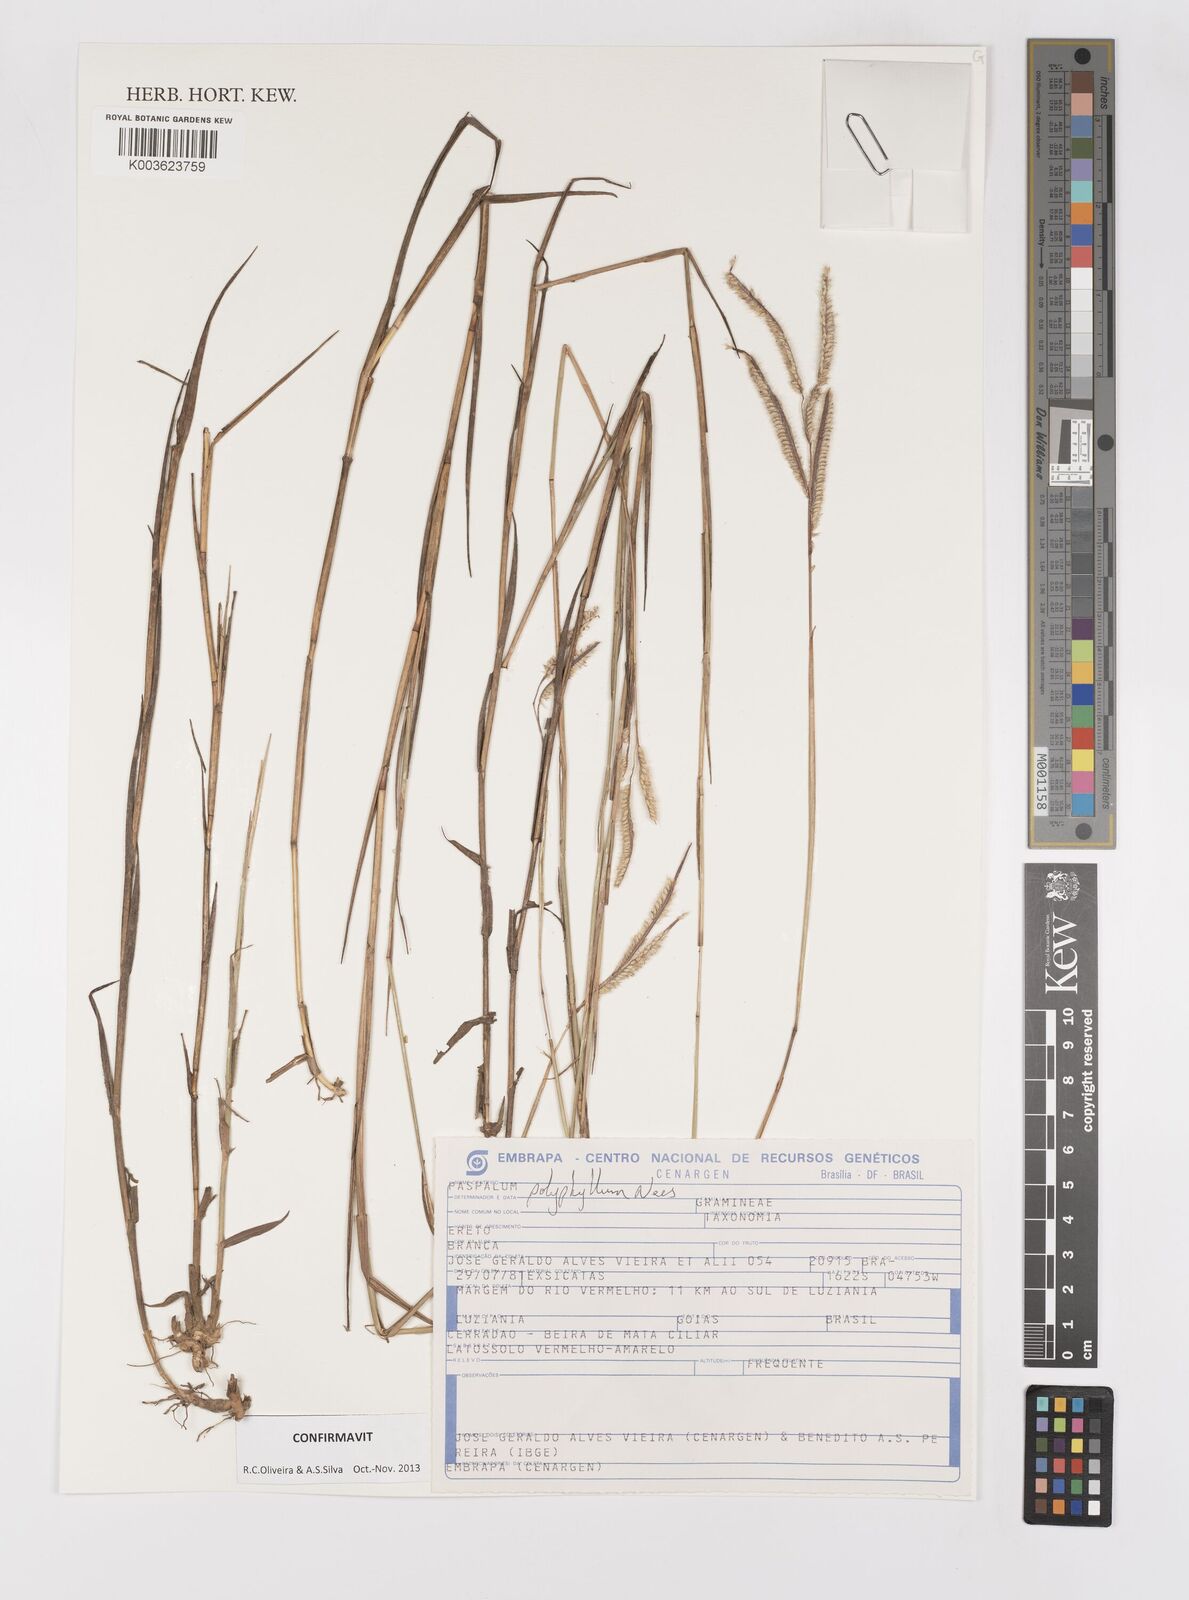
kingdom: Plantae
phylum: Tracheophyta
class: Liliopsida
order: Poales
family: Poaceae
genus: Paspalum
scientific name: Paspalum polyphyllum
